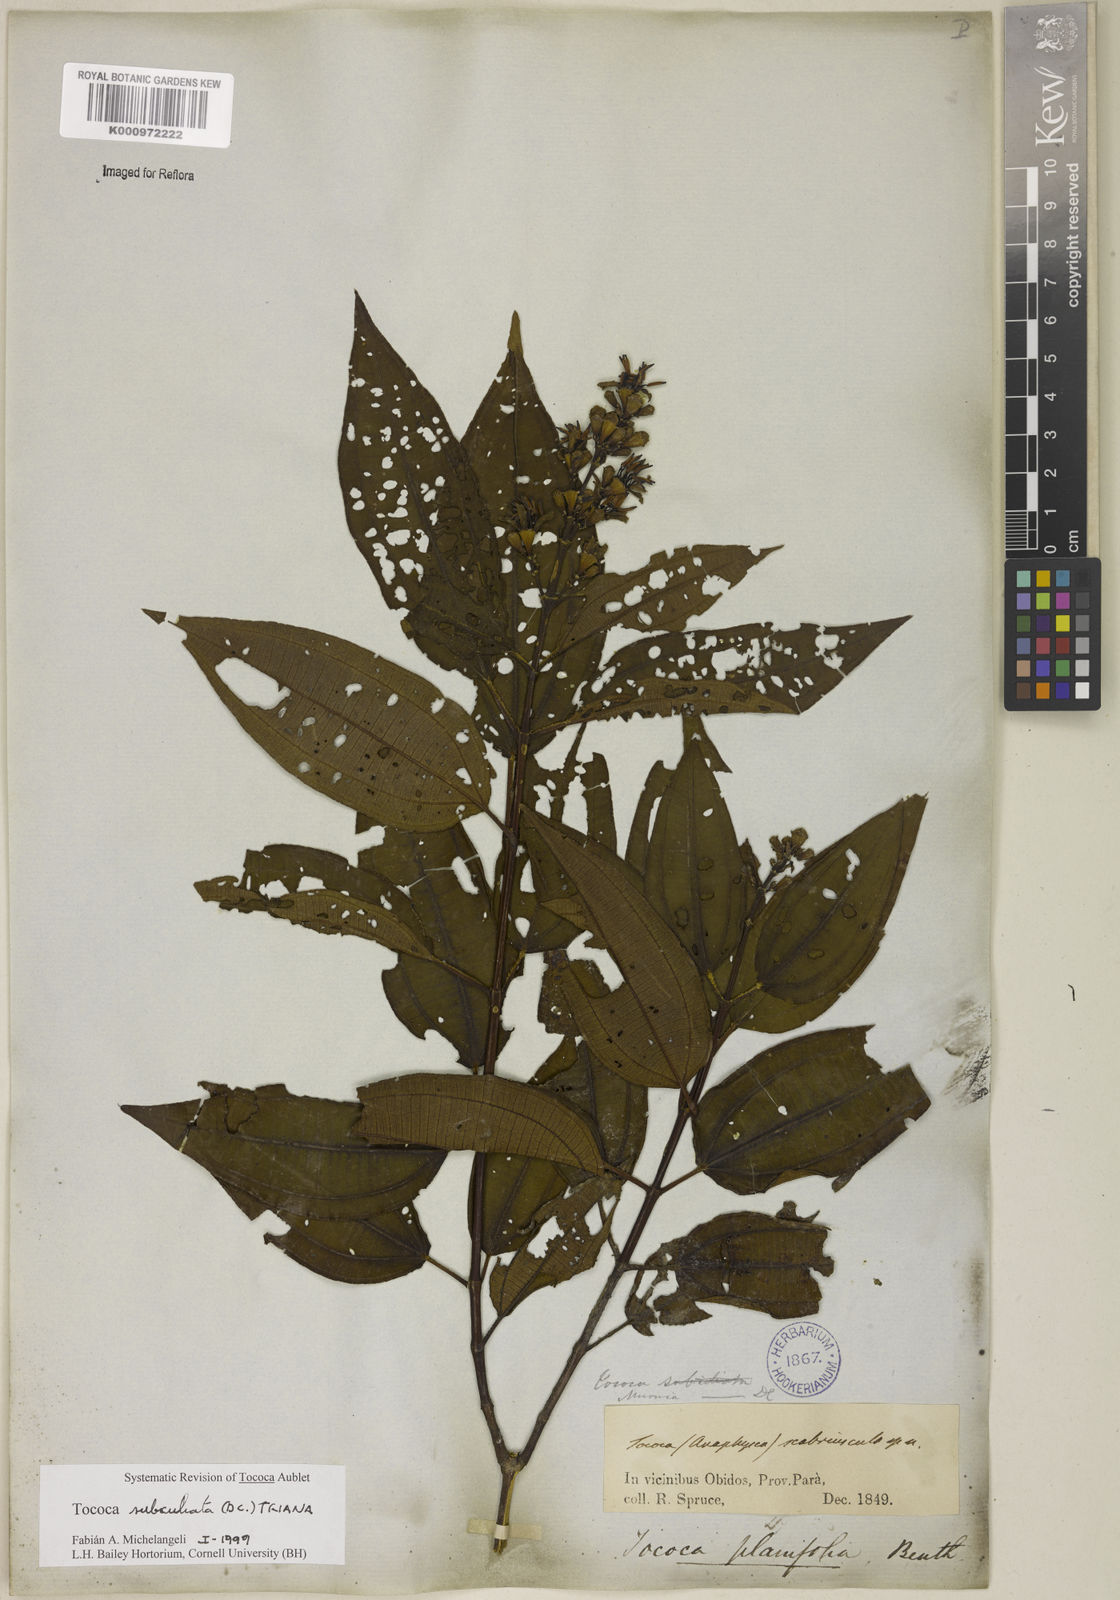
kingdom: Plantae
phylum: Tracheophyta
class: Magnoliopsida
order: Myrtales
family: Melastomataceae
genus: Miconia
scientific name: Miconia subciliata
